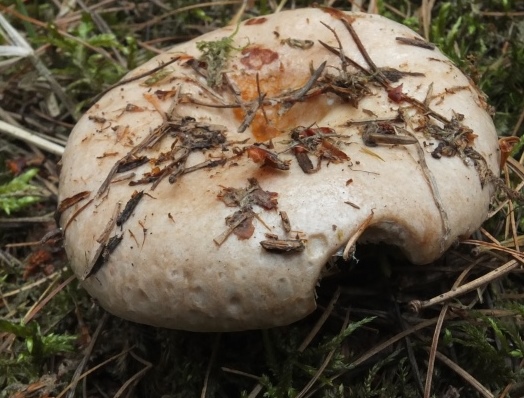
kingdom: Fungi
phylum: Basidiomycota
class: Agaricomycetes
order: Russulales
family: Russulaceae
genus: Lactarius
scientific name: Lactarius musteus
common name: elfenbens-mælkehat
